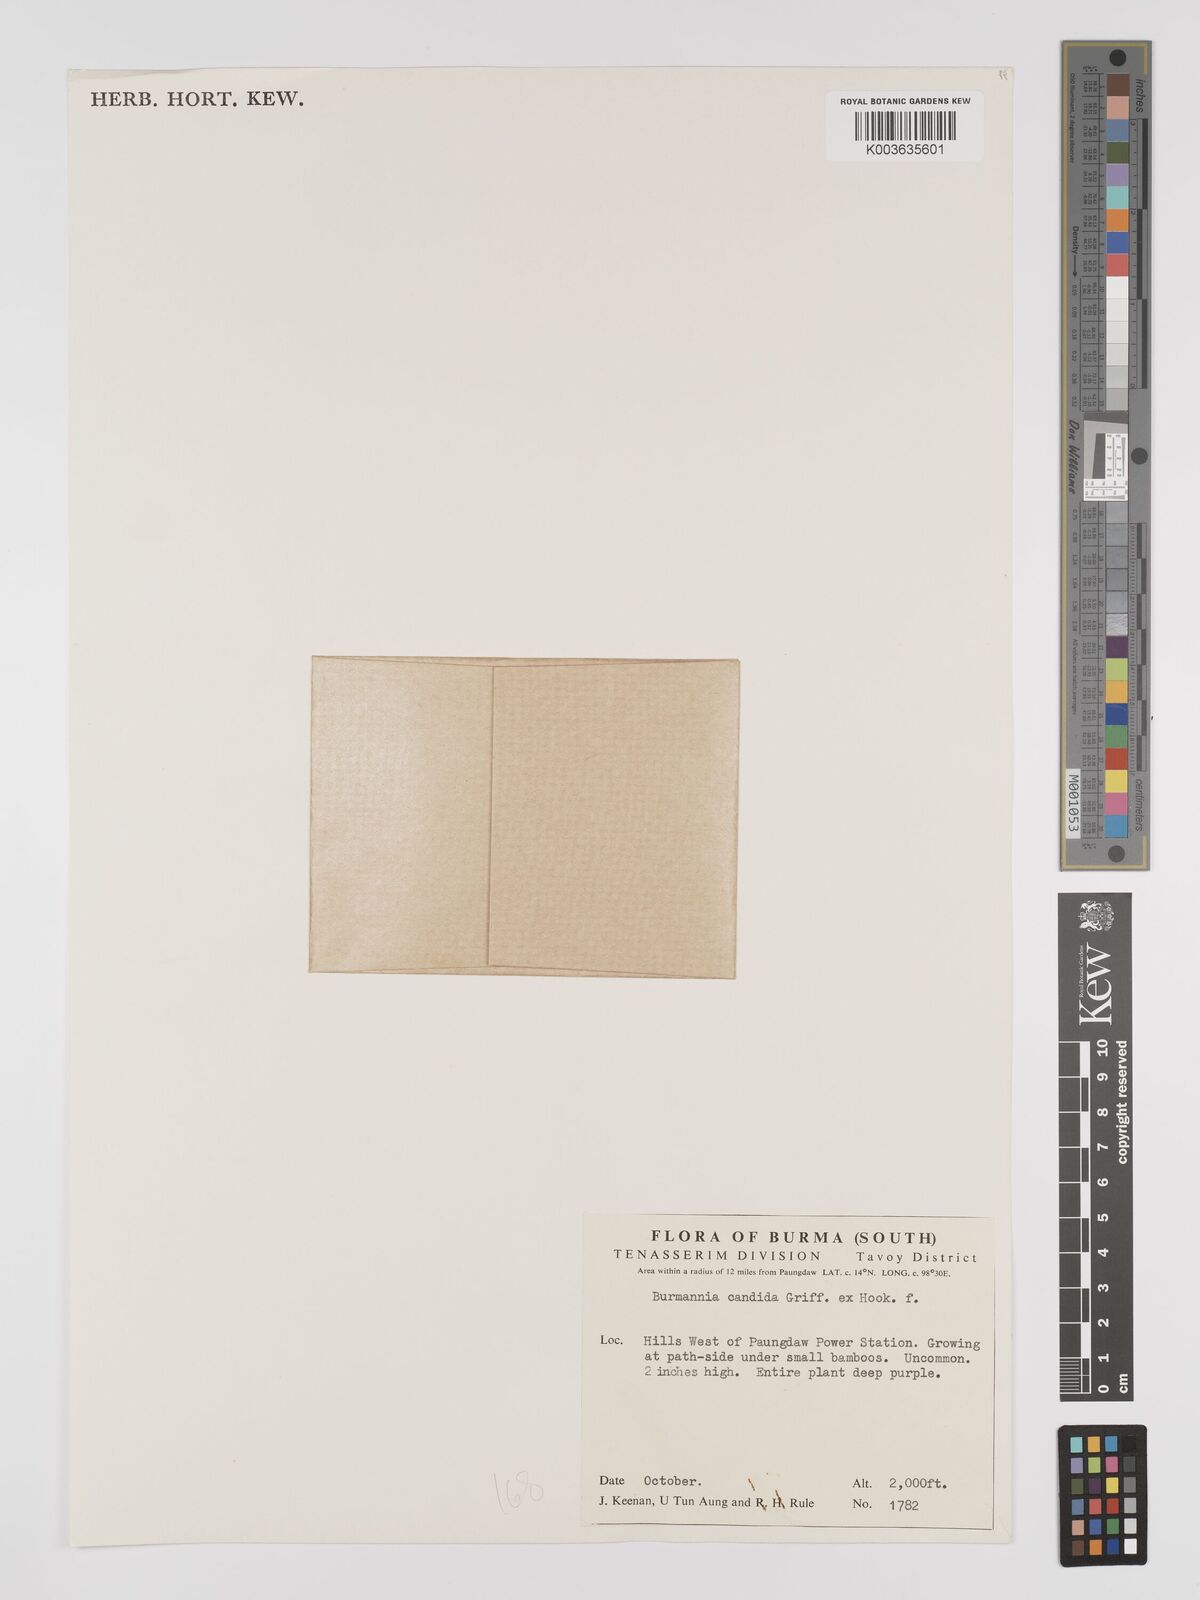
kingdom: Plantae
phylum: Tracheophyta
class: Liliopsida
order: Dioscoreales
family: Burmanniaceae
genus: Burmannia
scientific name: Burmannia candida
